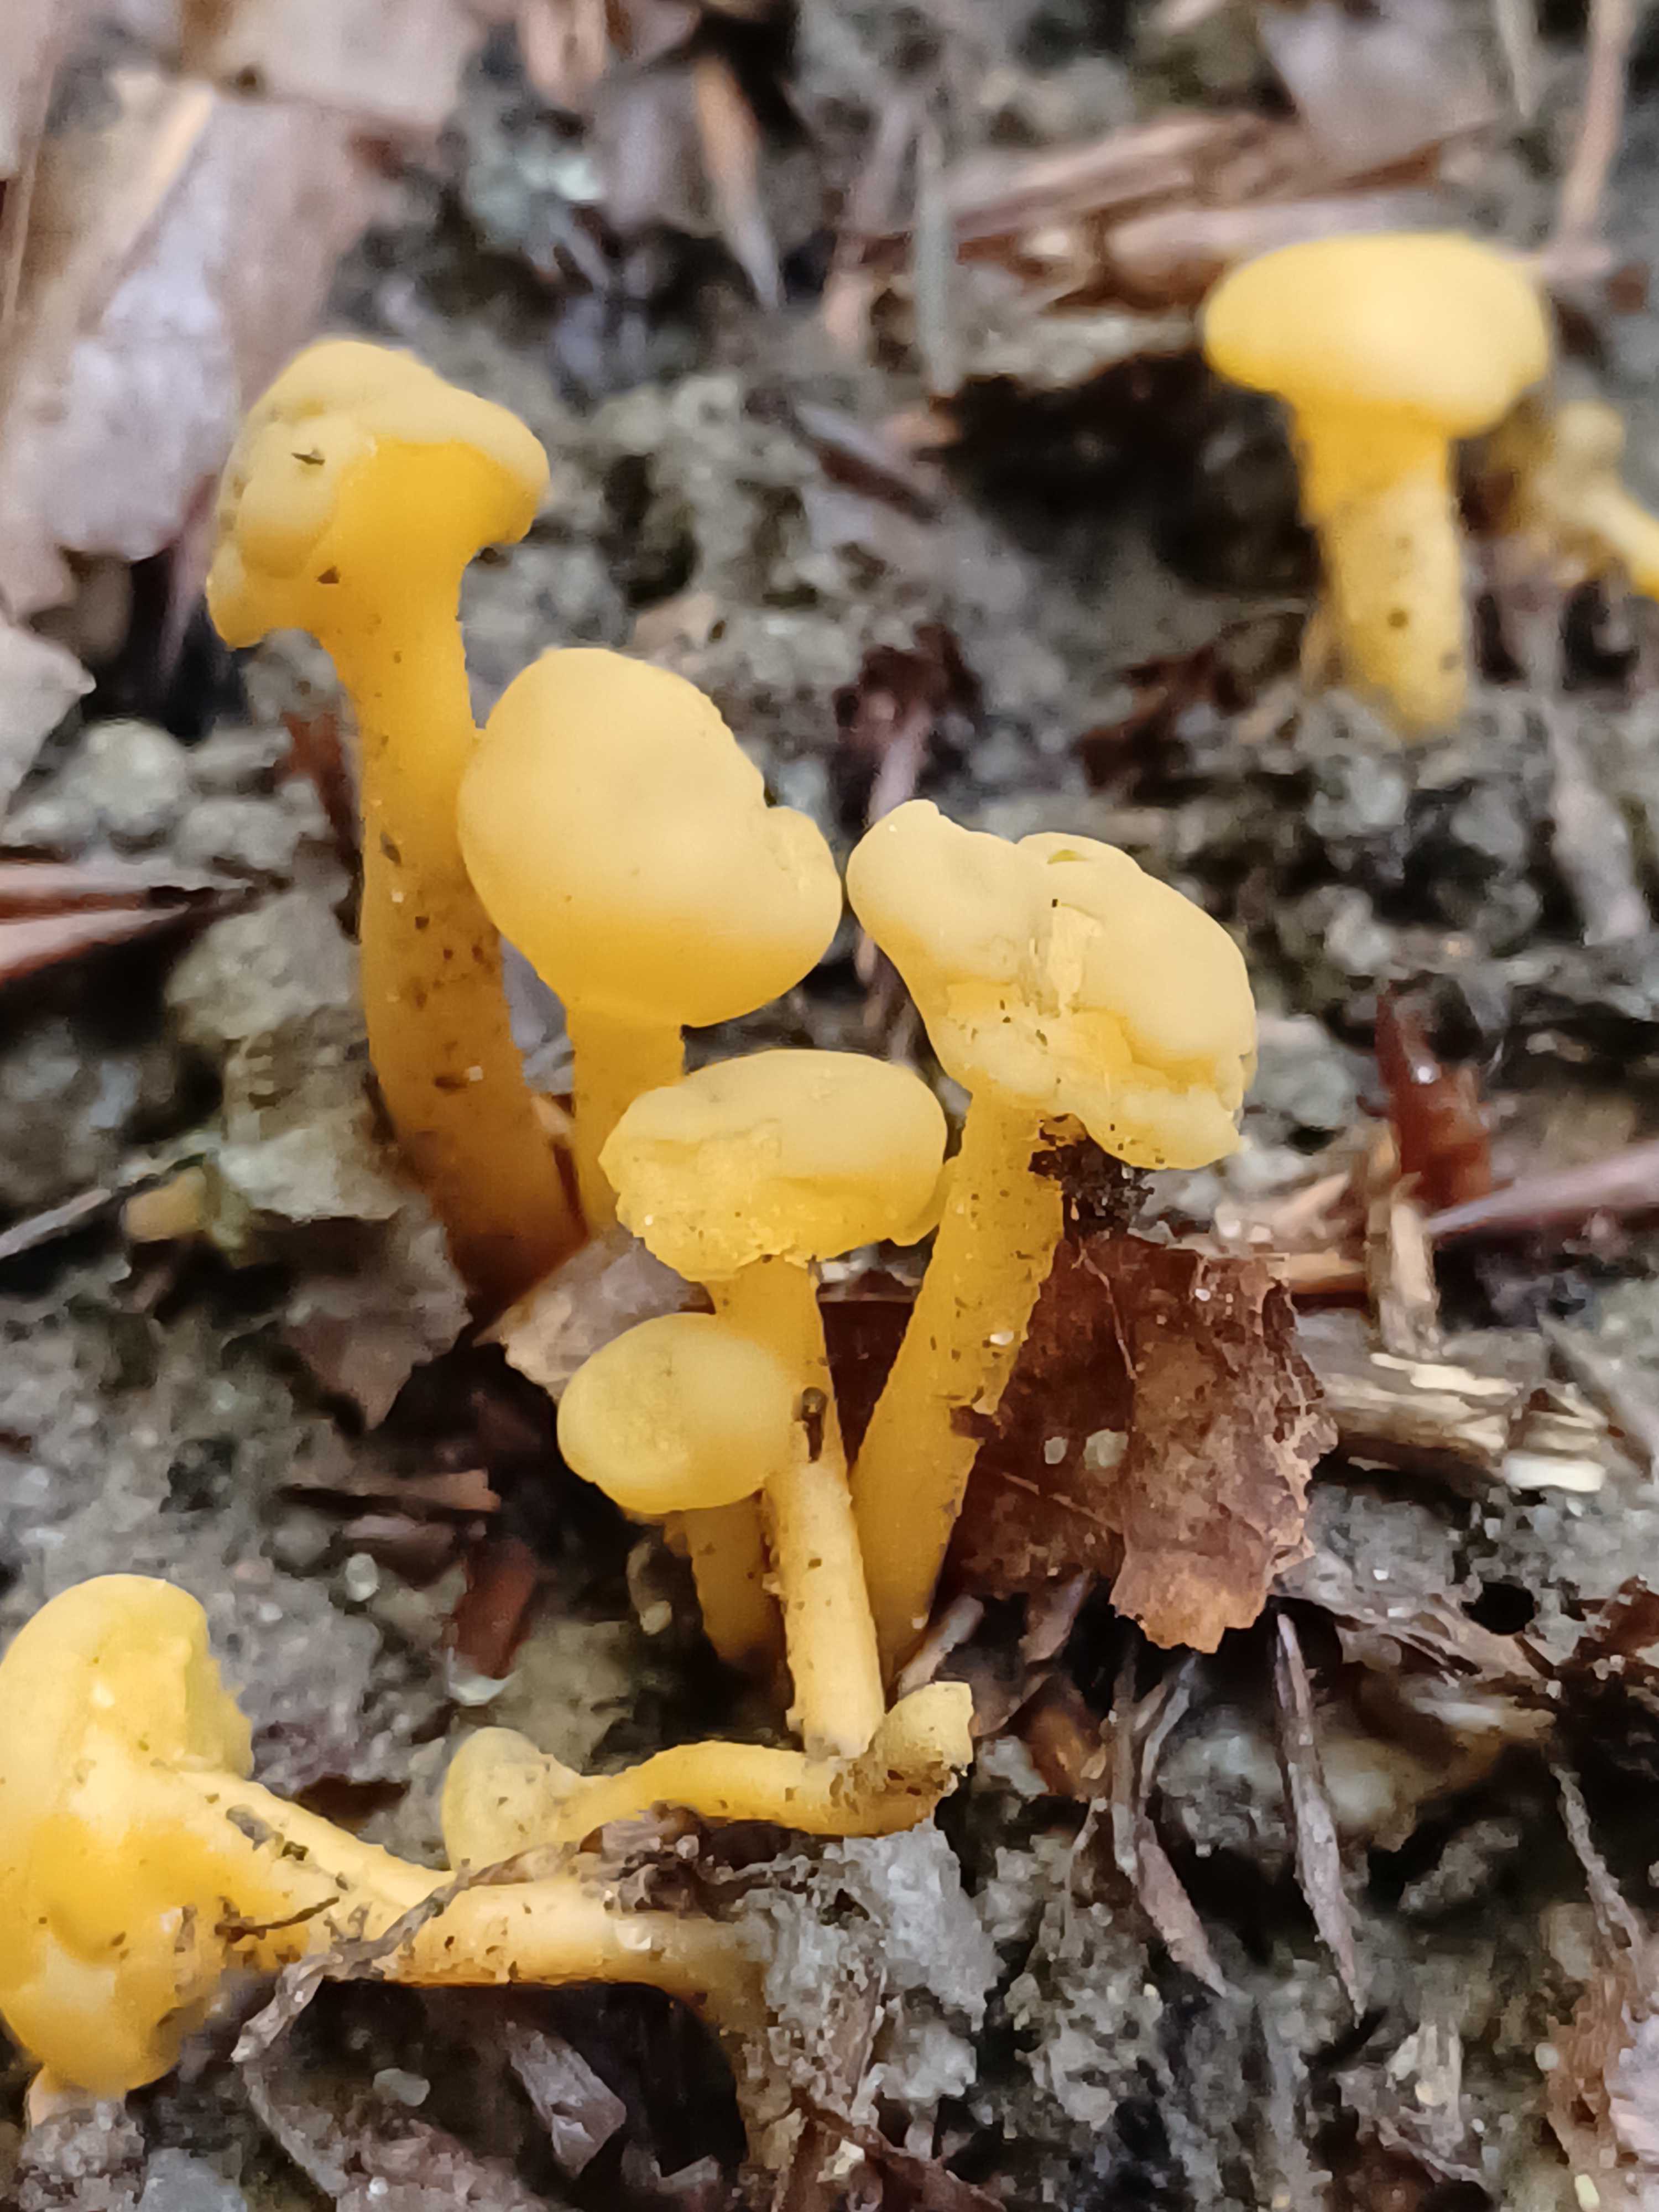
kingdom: Fungi
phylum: Ascomycota
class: Leotiomycetes
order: Leotiales
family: Leotiaceae
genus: Leotia
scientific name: Leotia lubrica
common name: ravsvamp
